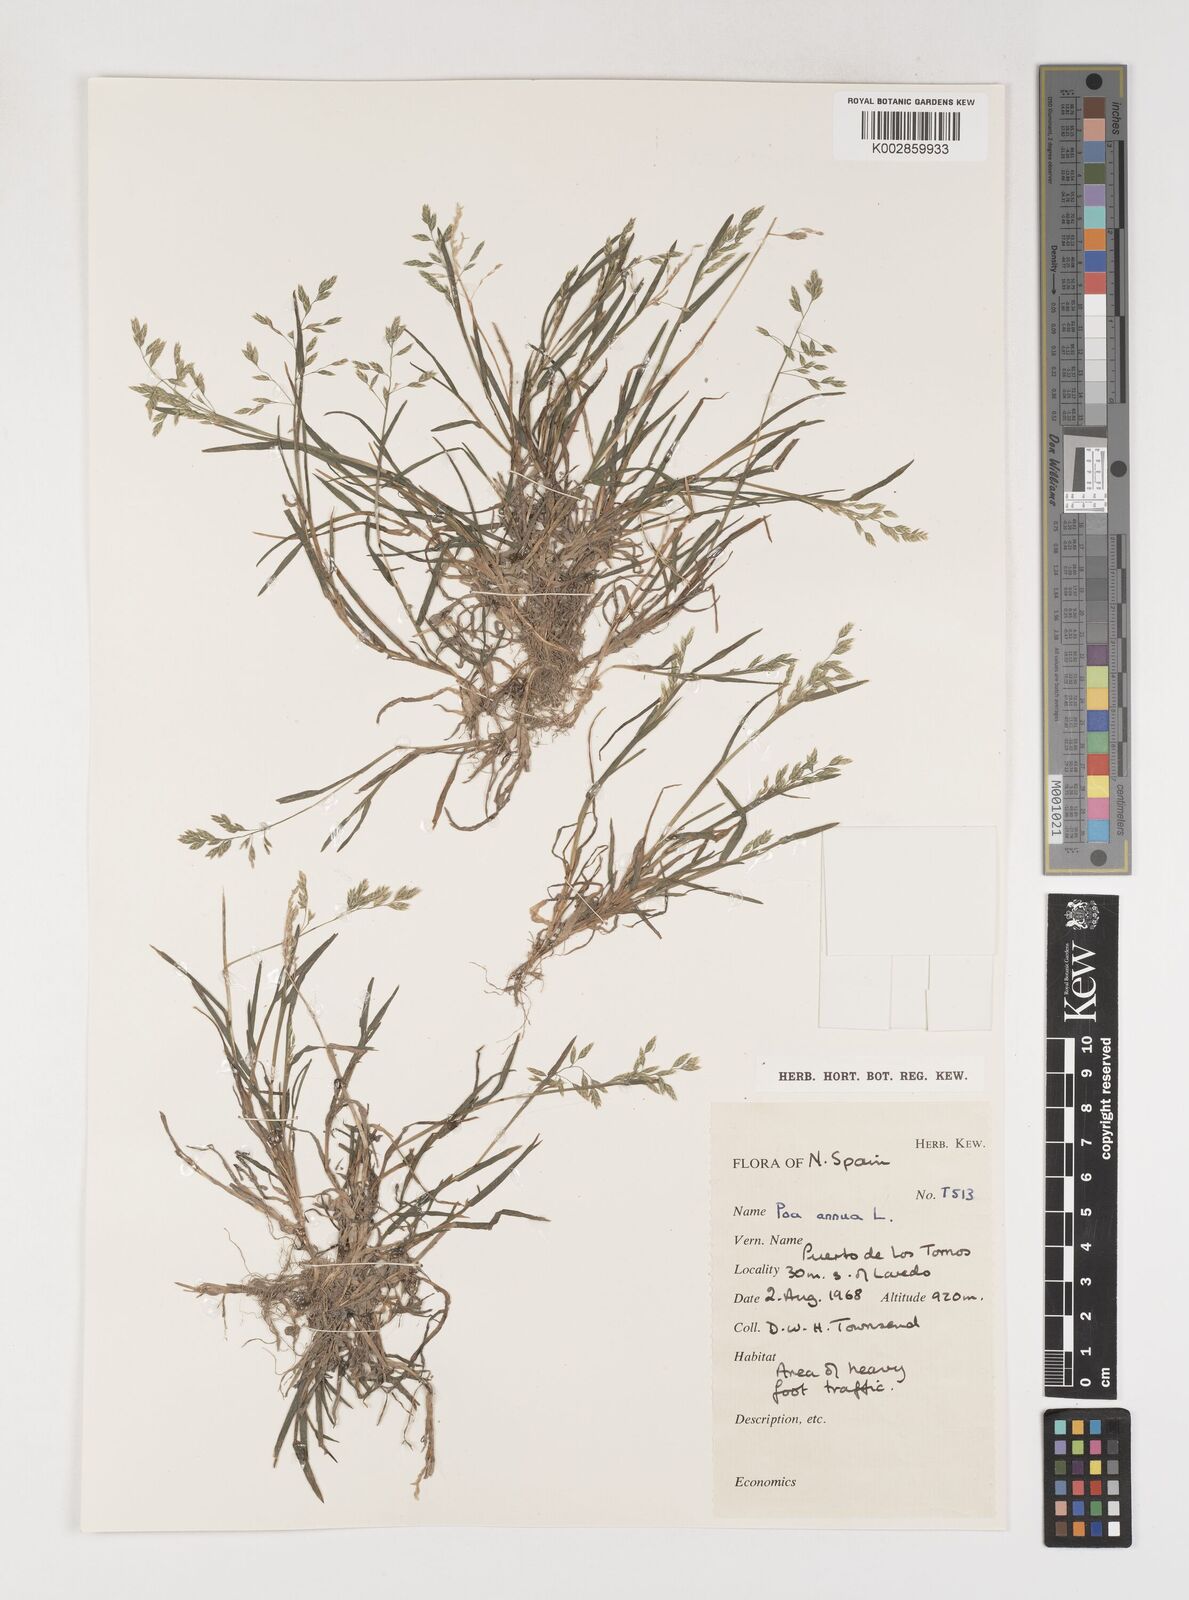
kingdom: Plantae
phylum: Tracheophyta
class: Liliopsida
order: Poales
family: Poaceae
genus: Poa
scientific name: Poa annua
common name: Annual bluegrass
